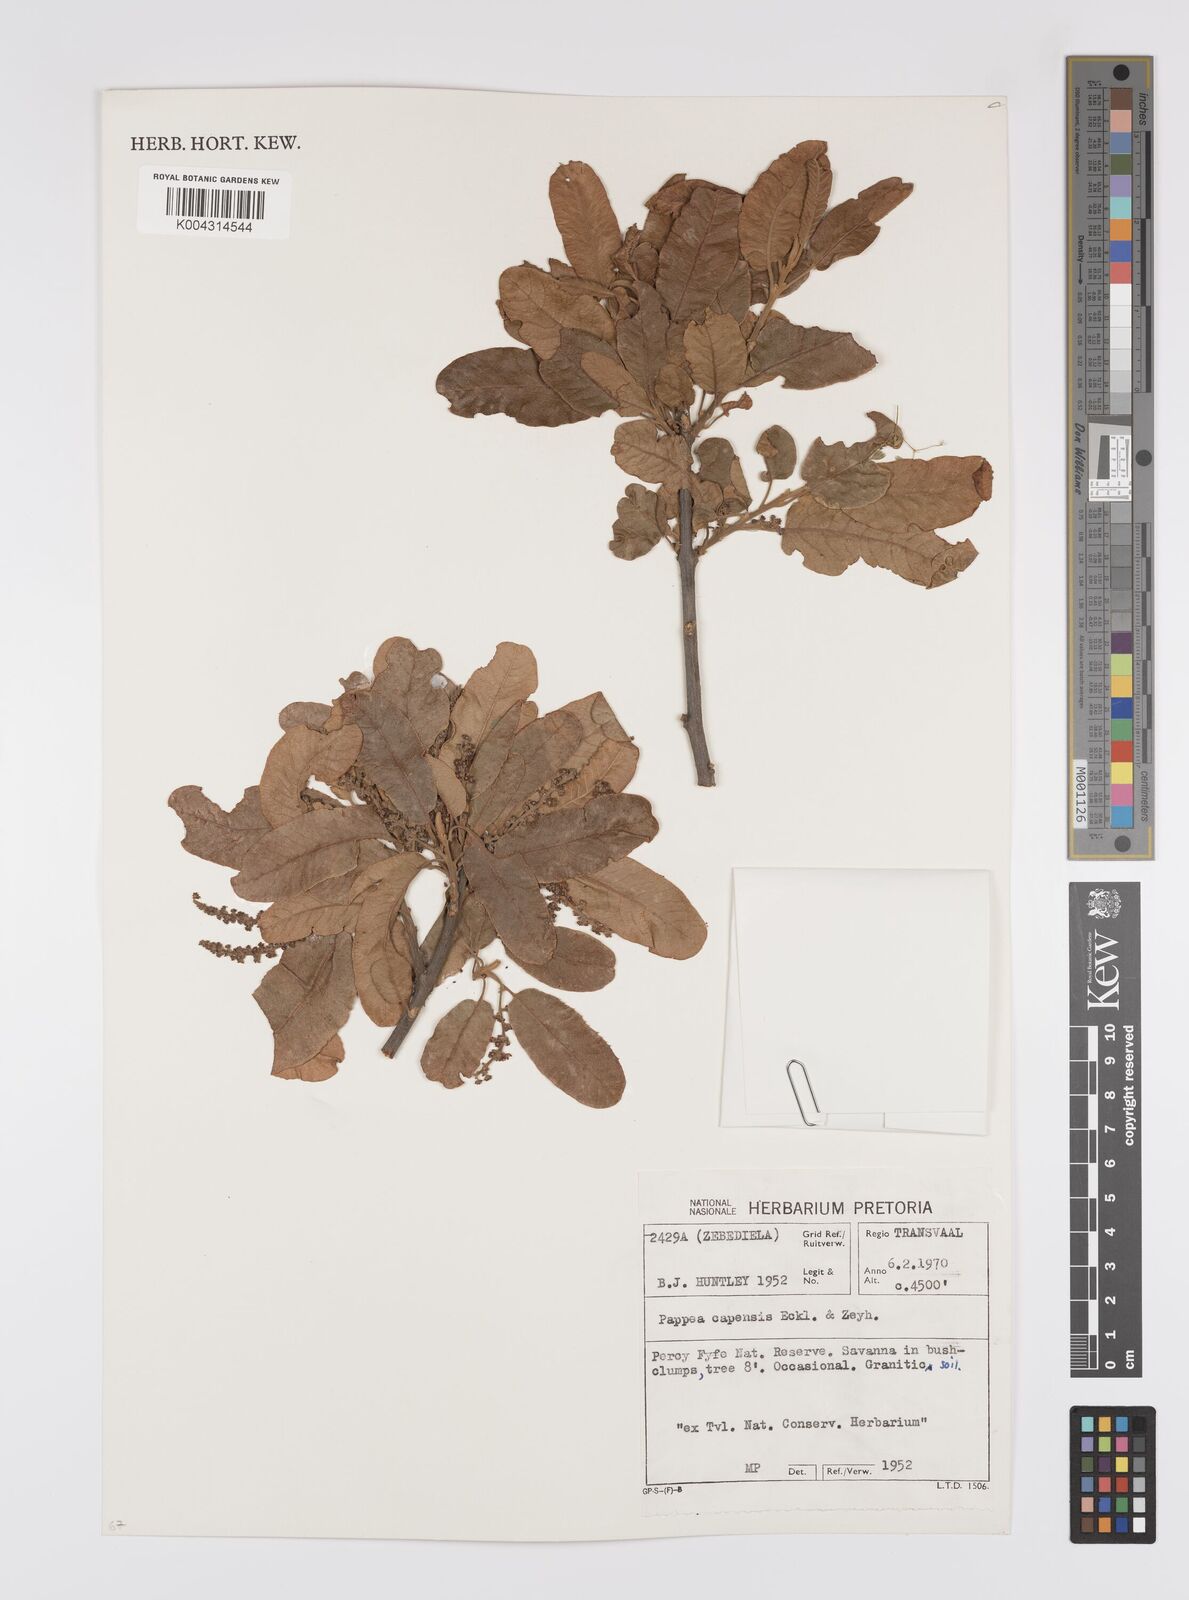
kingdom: Plantae
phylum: Tracheophyta
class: Magnoliopsida
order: Sapindales
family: Sapindaceae
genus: Pappea
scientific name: Pappea capensis
